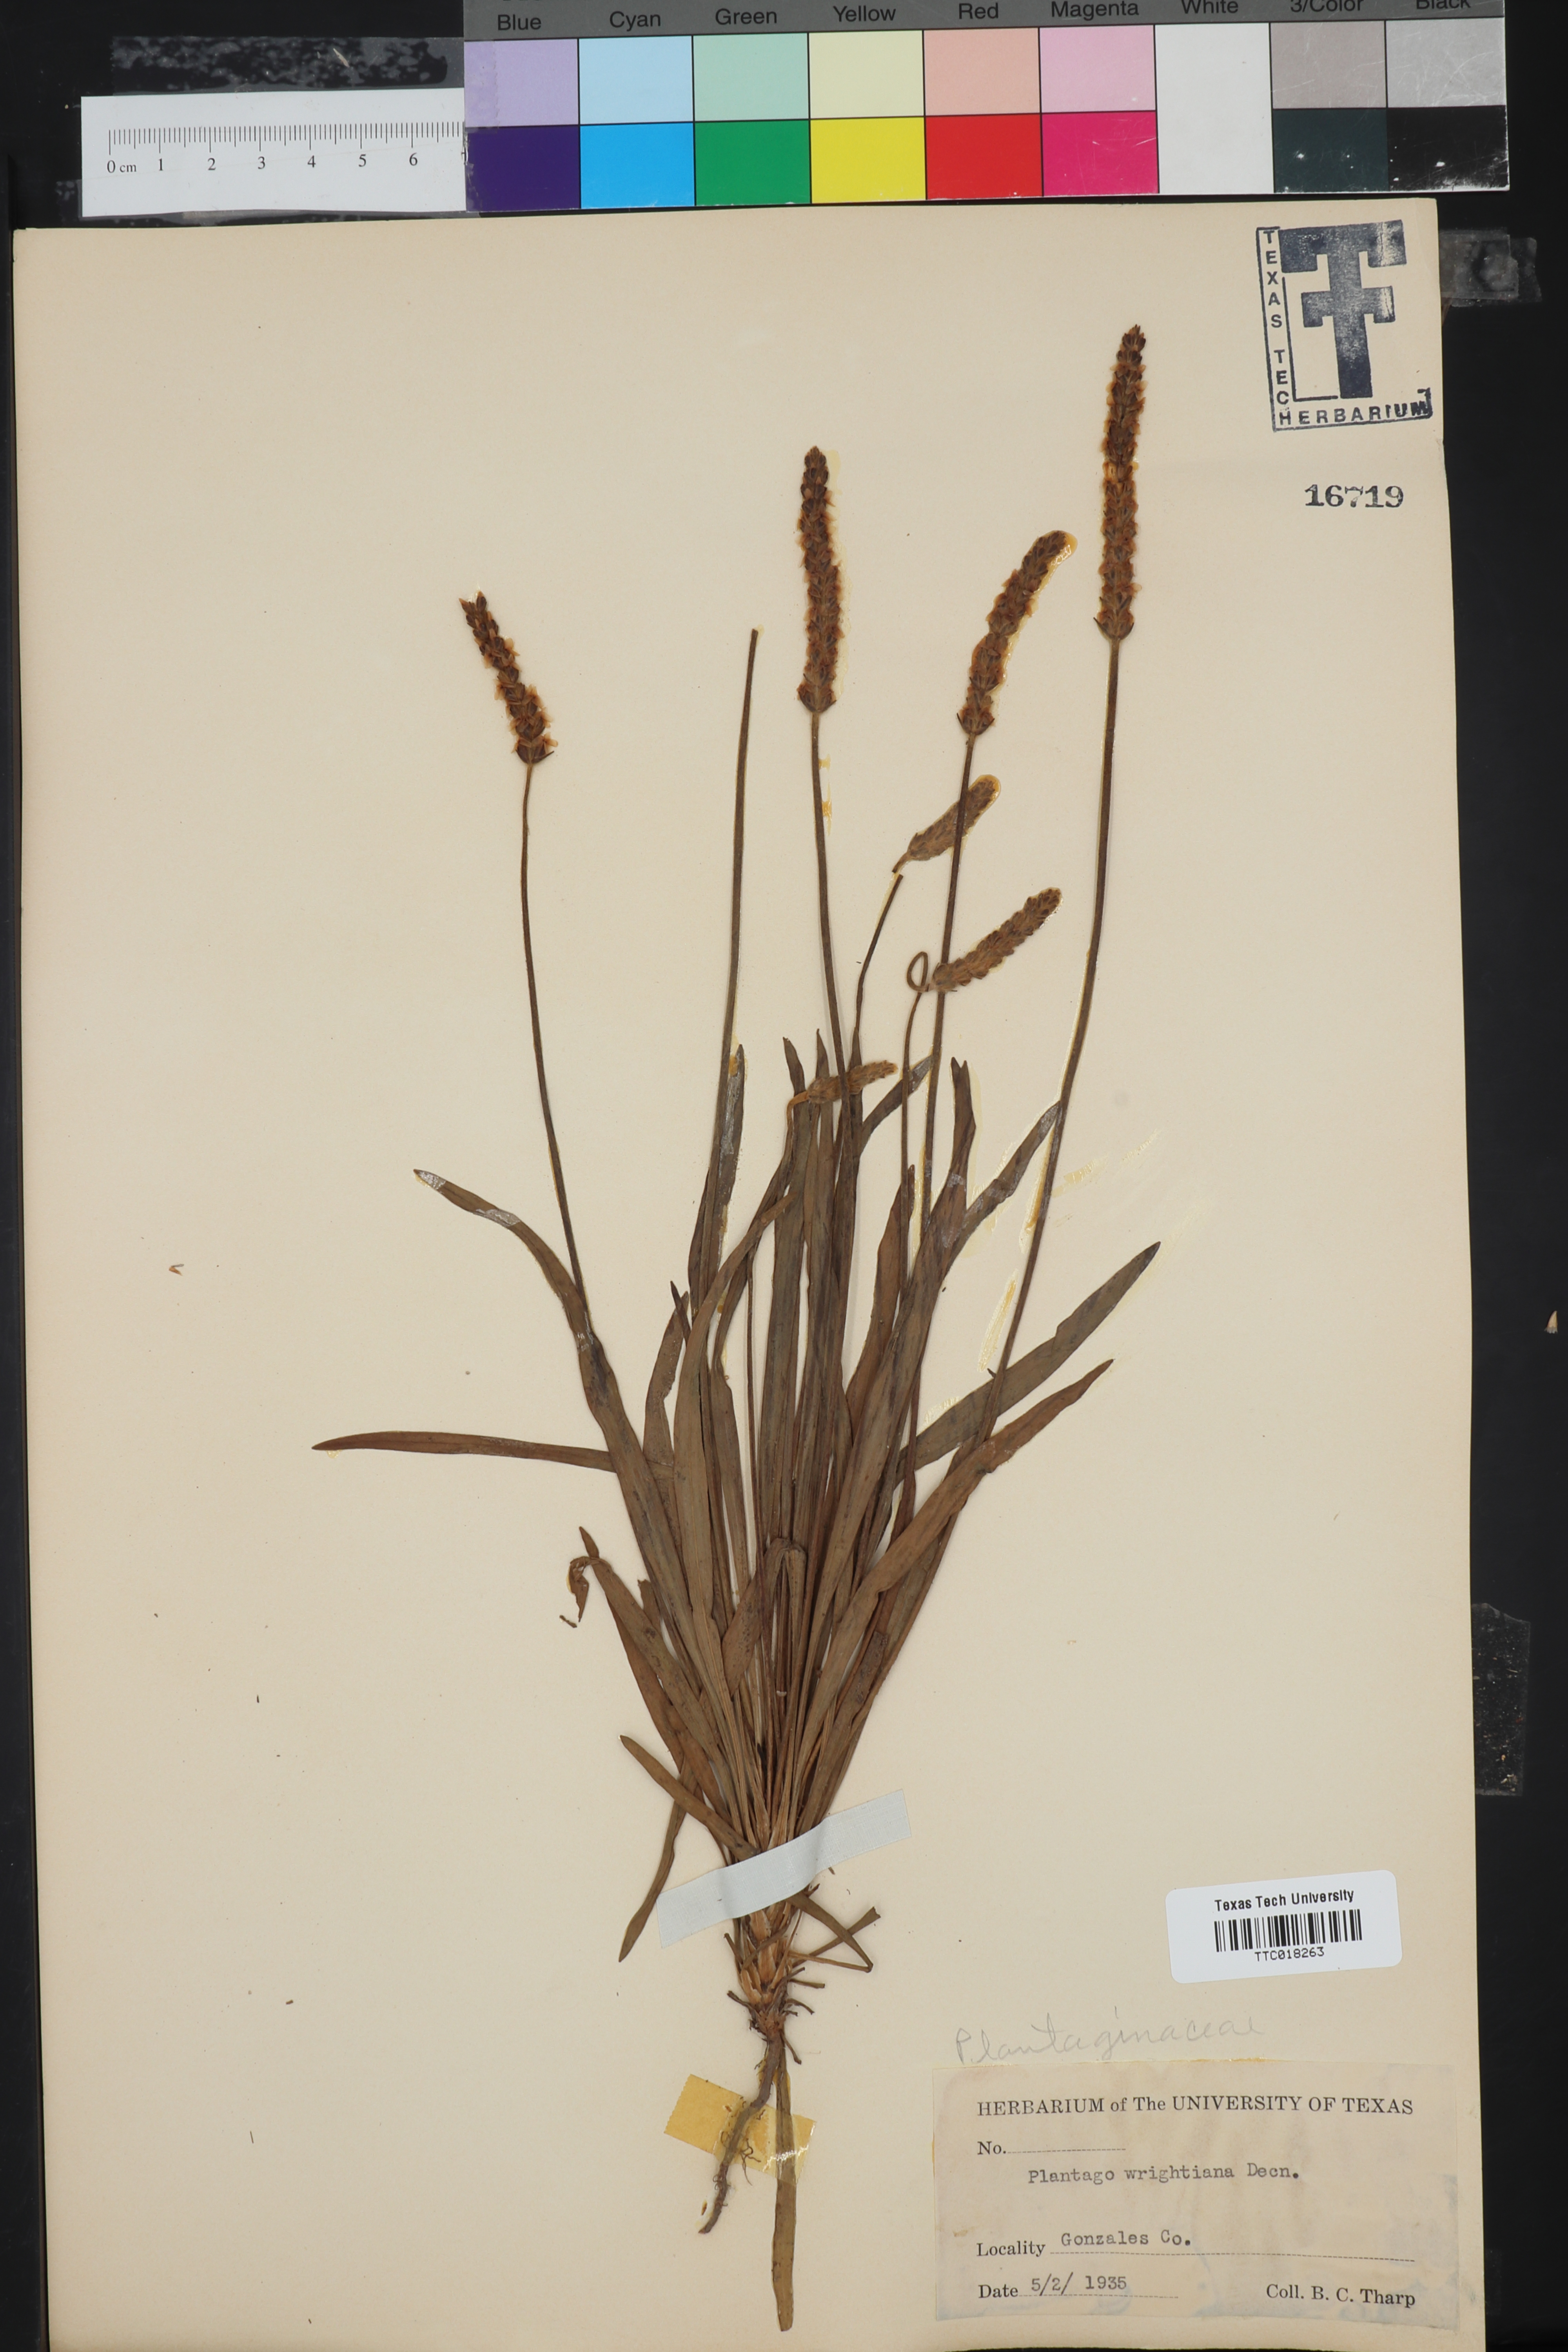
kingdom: Plantae
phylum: Tracheophyta
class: Magnoliopsida
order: Lamiales
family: Plantaginaceae
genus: Plantago
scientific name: Plantago wrightiana
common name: Wright's plantain
